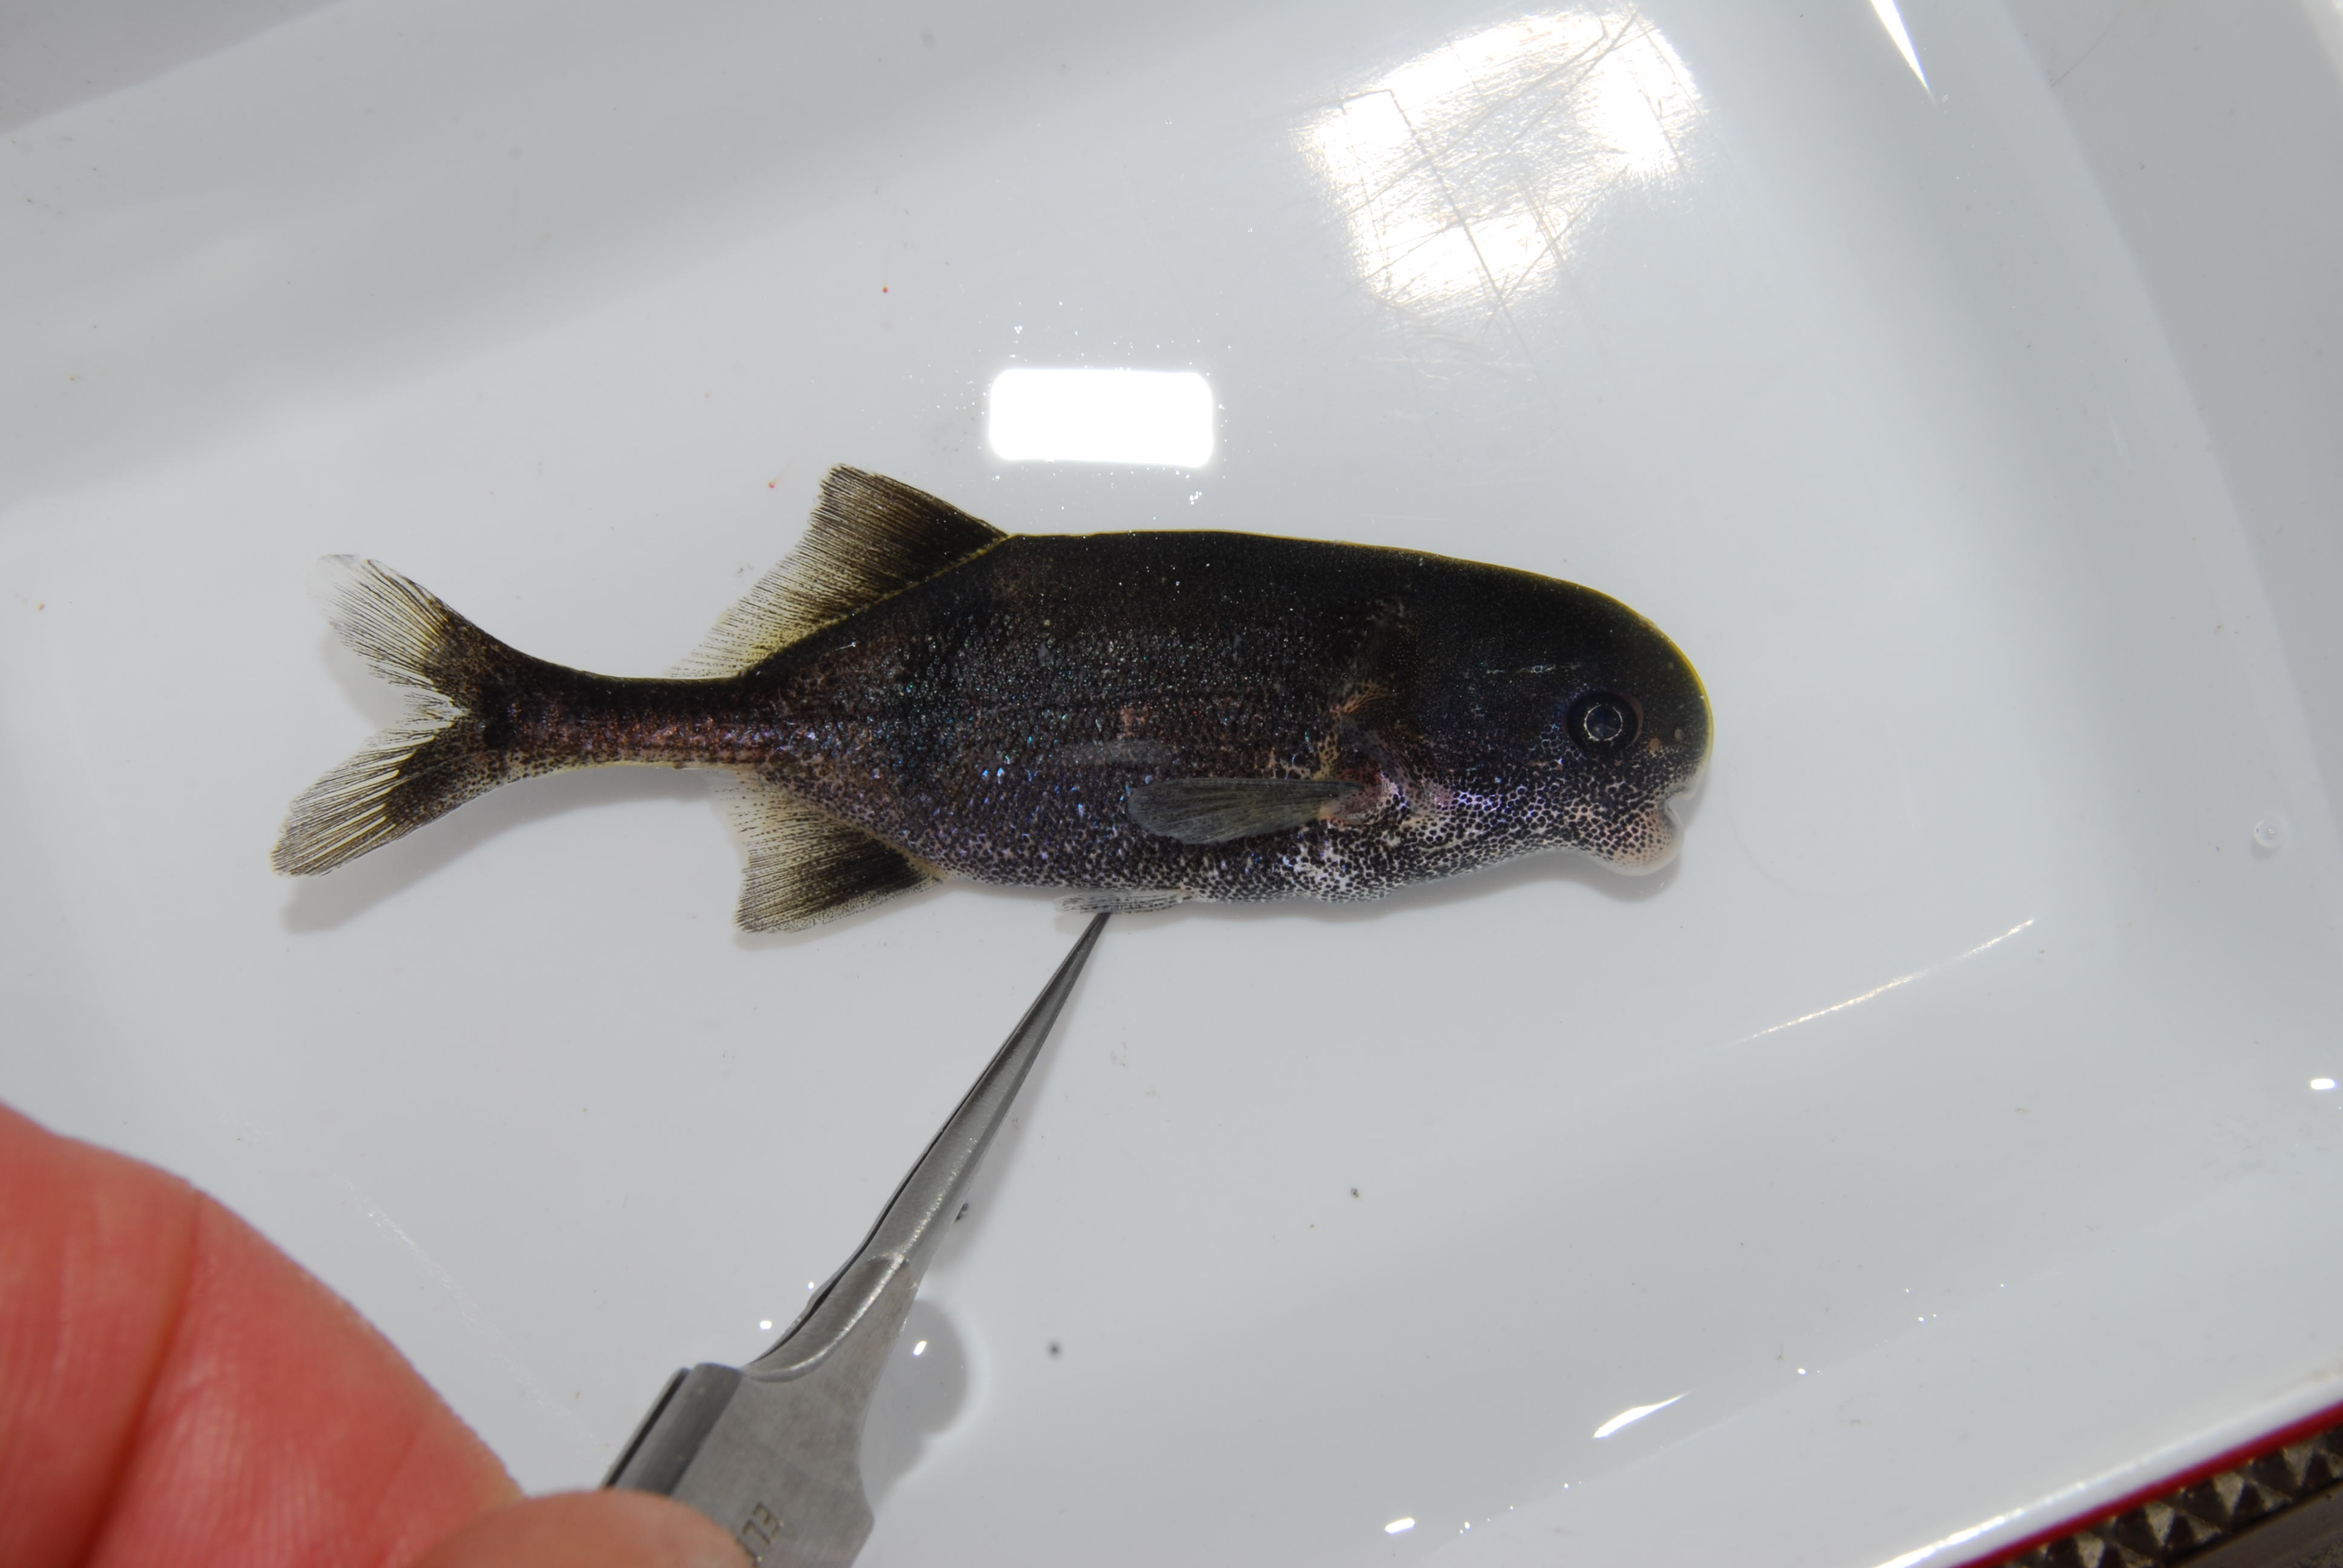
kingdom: Animalia
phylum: Chordata
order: Osteoglossiformes
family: Mormyridae
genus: Cyphomyrus
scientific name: Cyphomyrus
